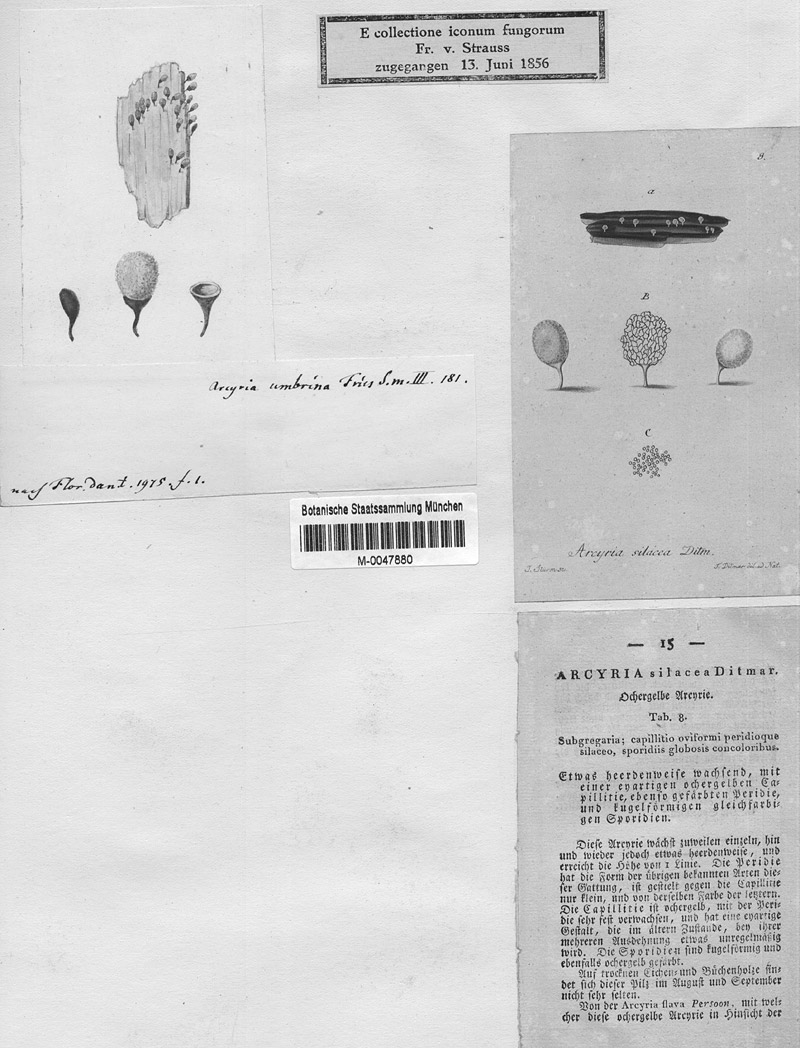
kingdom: Protozoa
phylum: Mycetozoa
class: Myxomycetes
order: Trichiales
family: Arcyriaceae
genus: Arcyria
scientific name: Arcyria pomiformis
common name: Golden apple slime mold
